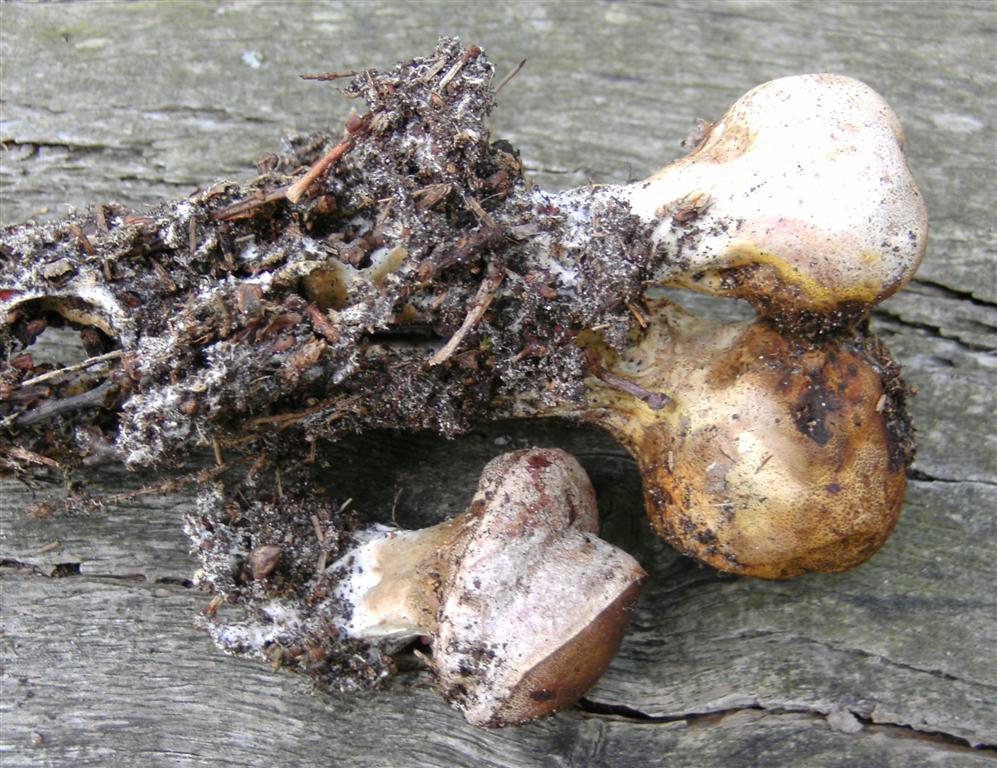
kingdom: Fungi
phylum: Basidiomycota
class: Agaricomycetes
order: Boletales
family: Sclerodermataceae
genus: Scleroderma
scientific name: Scleroderma verrucosum
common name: stilket bruskbold
